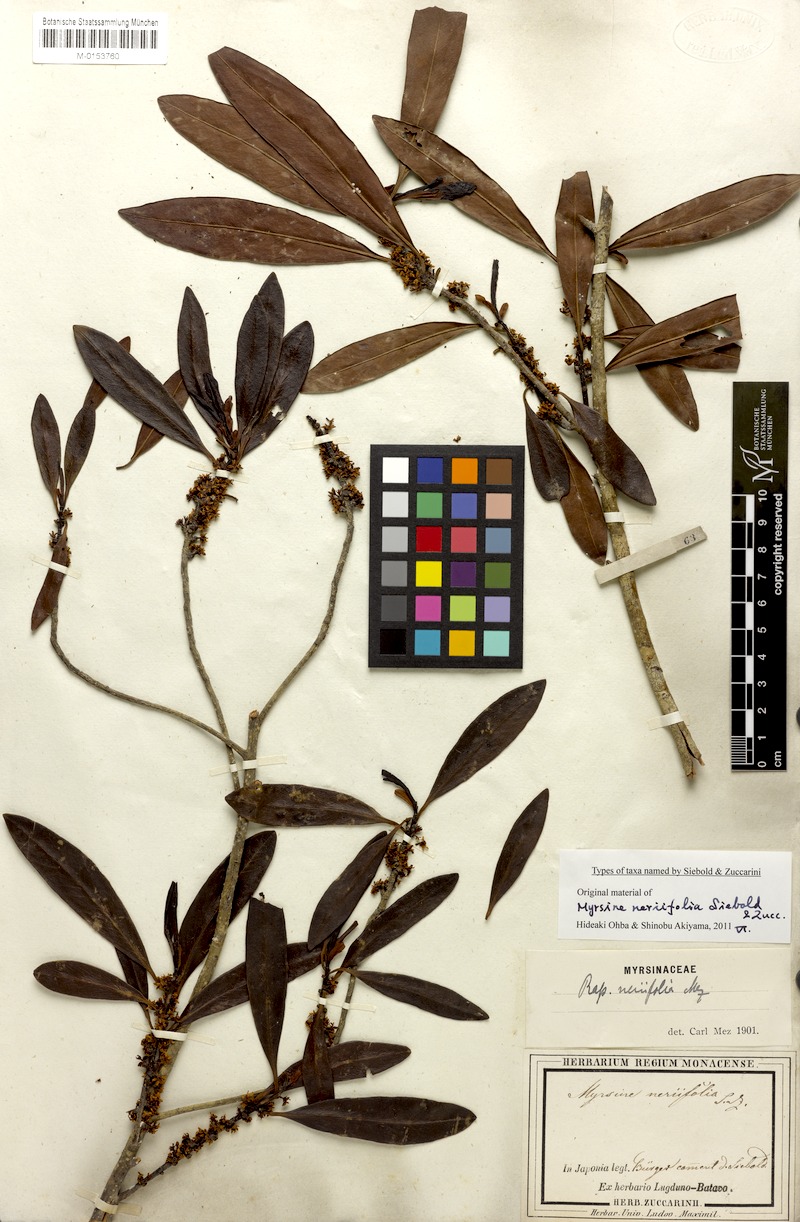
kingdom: Plantae
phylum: Tracheophyta
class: Magnoliopsida
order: Ericales
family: Primulaceae
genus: Myrsine
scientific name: Myrsine seguinii
